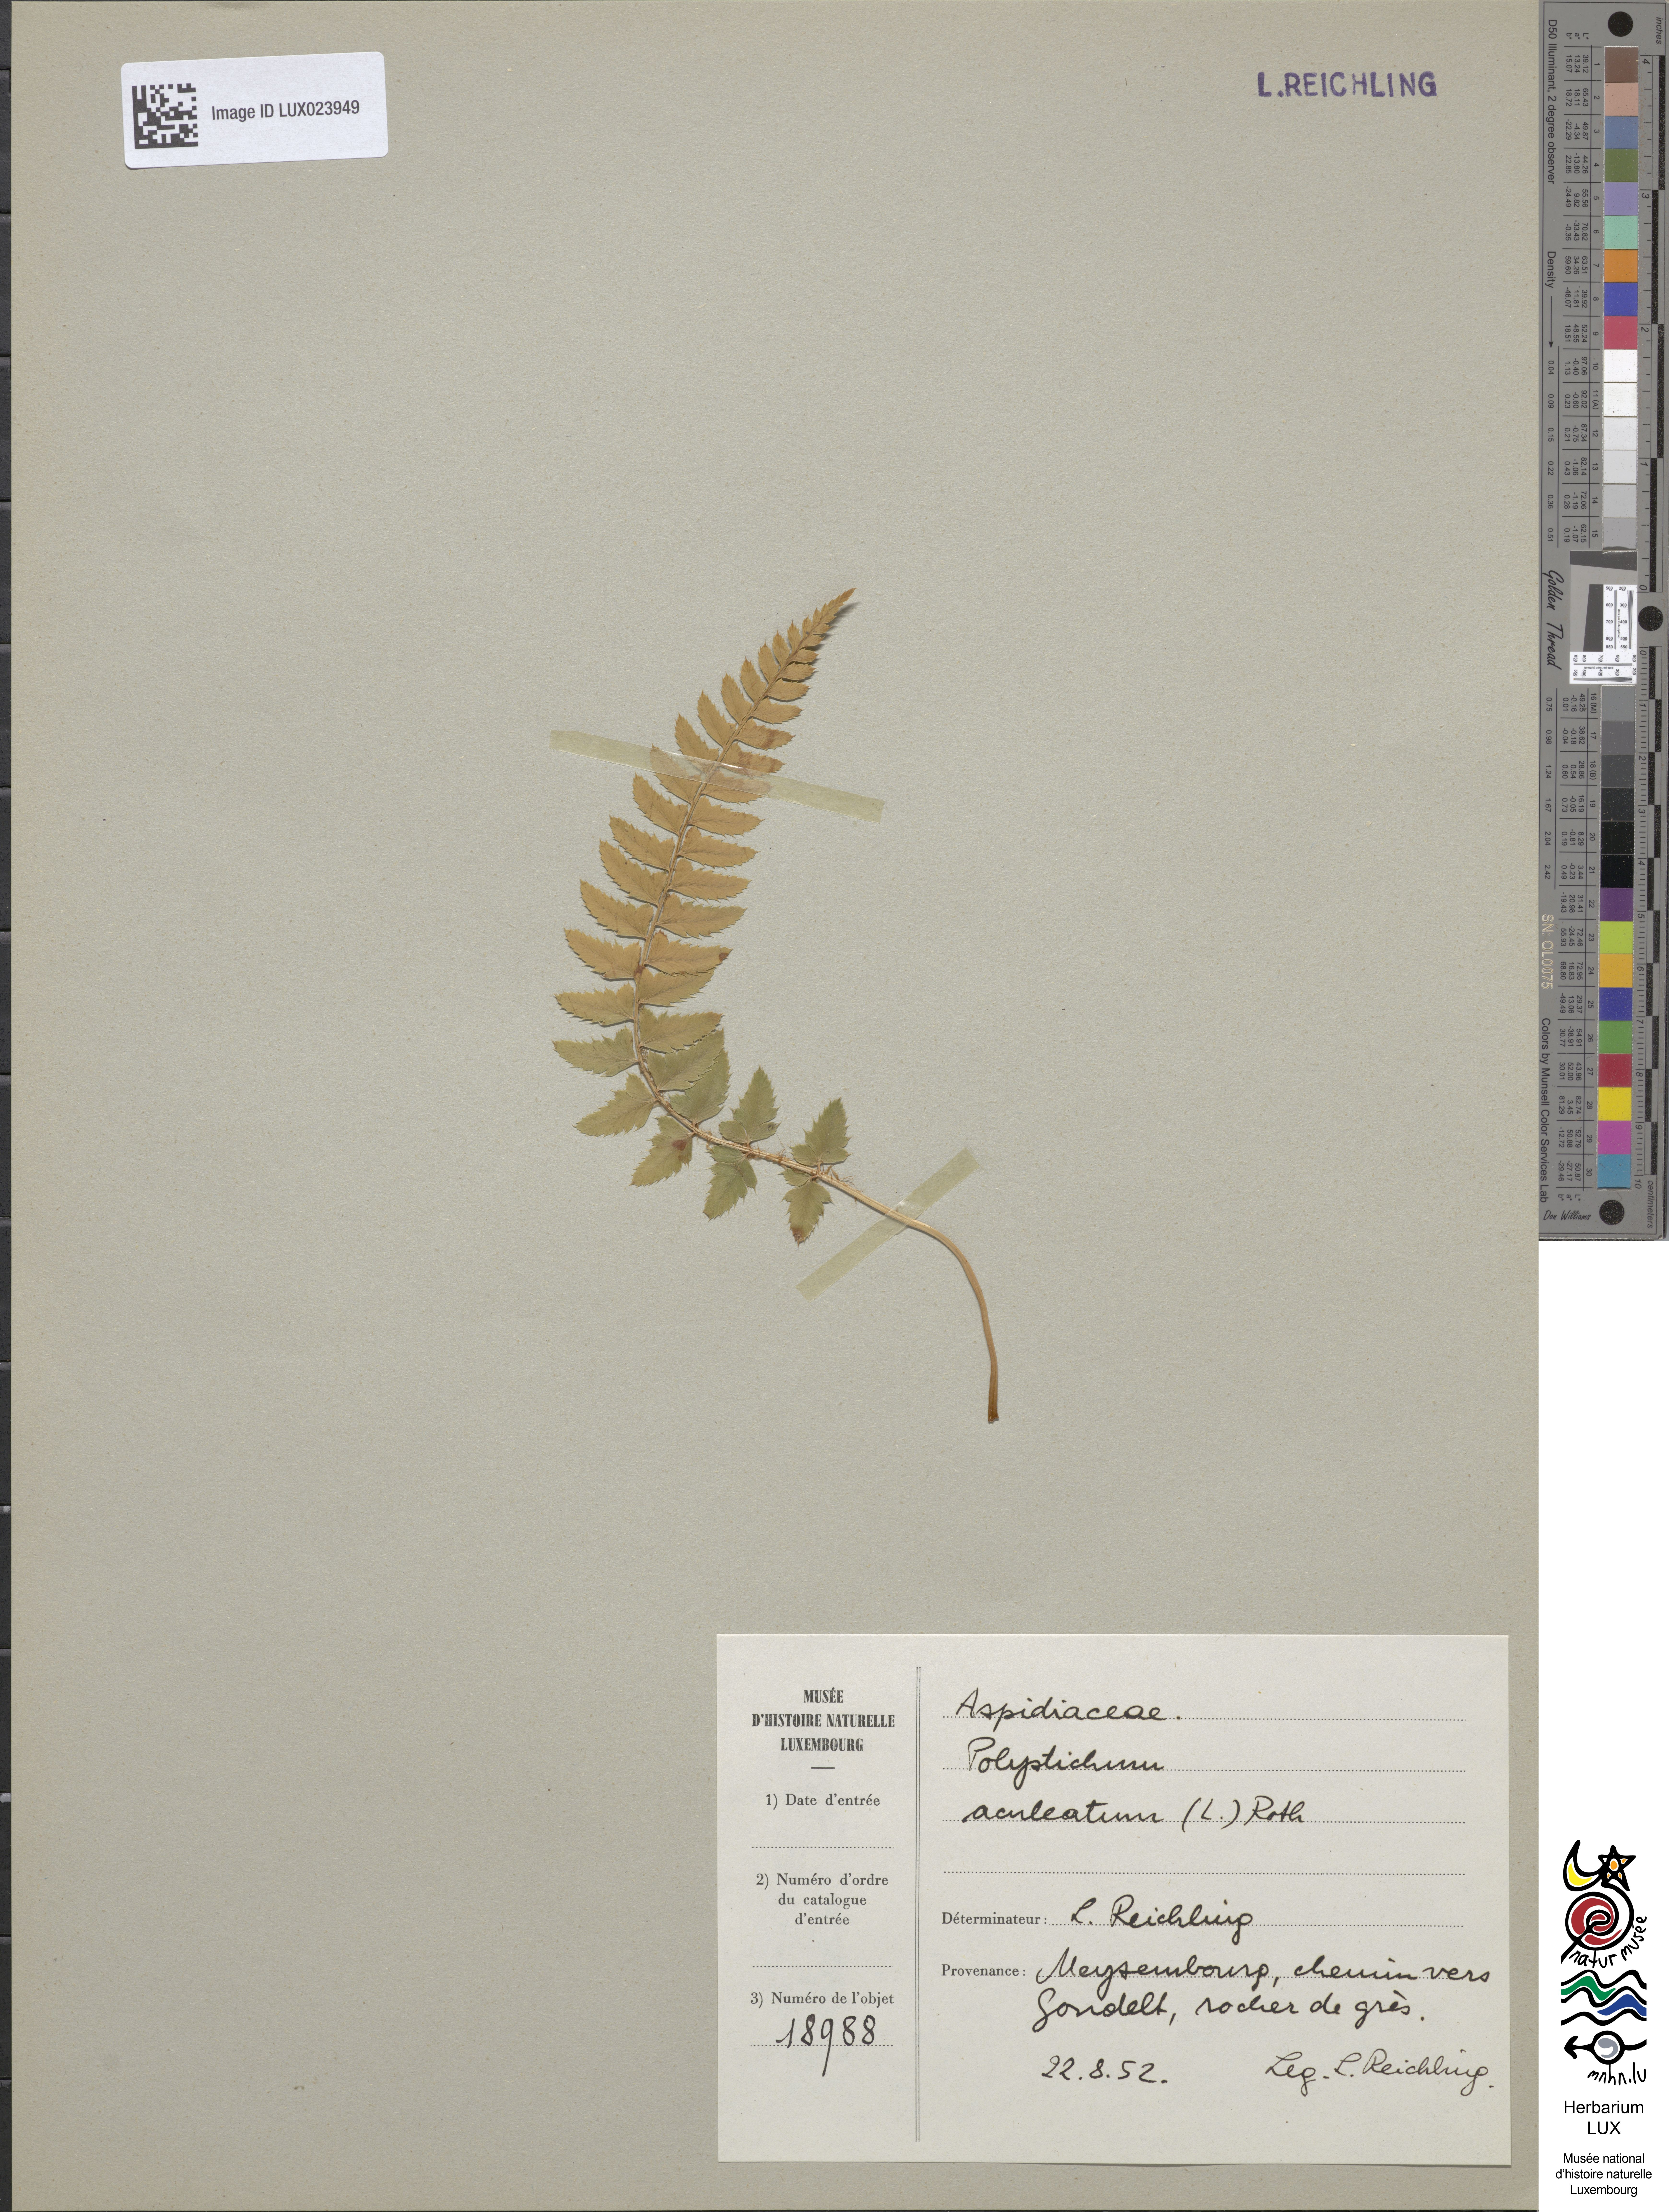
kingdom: Plantae
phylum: Tracheophyta
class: Polypodiopsida
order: Polypodiales
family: Dryopteridaceae
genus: Polystichum
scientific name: Polystichum aculeatum
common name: Hard shield-fern
